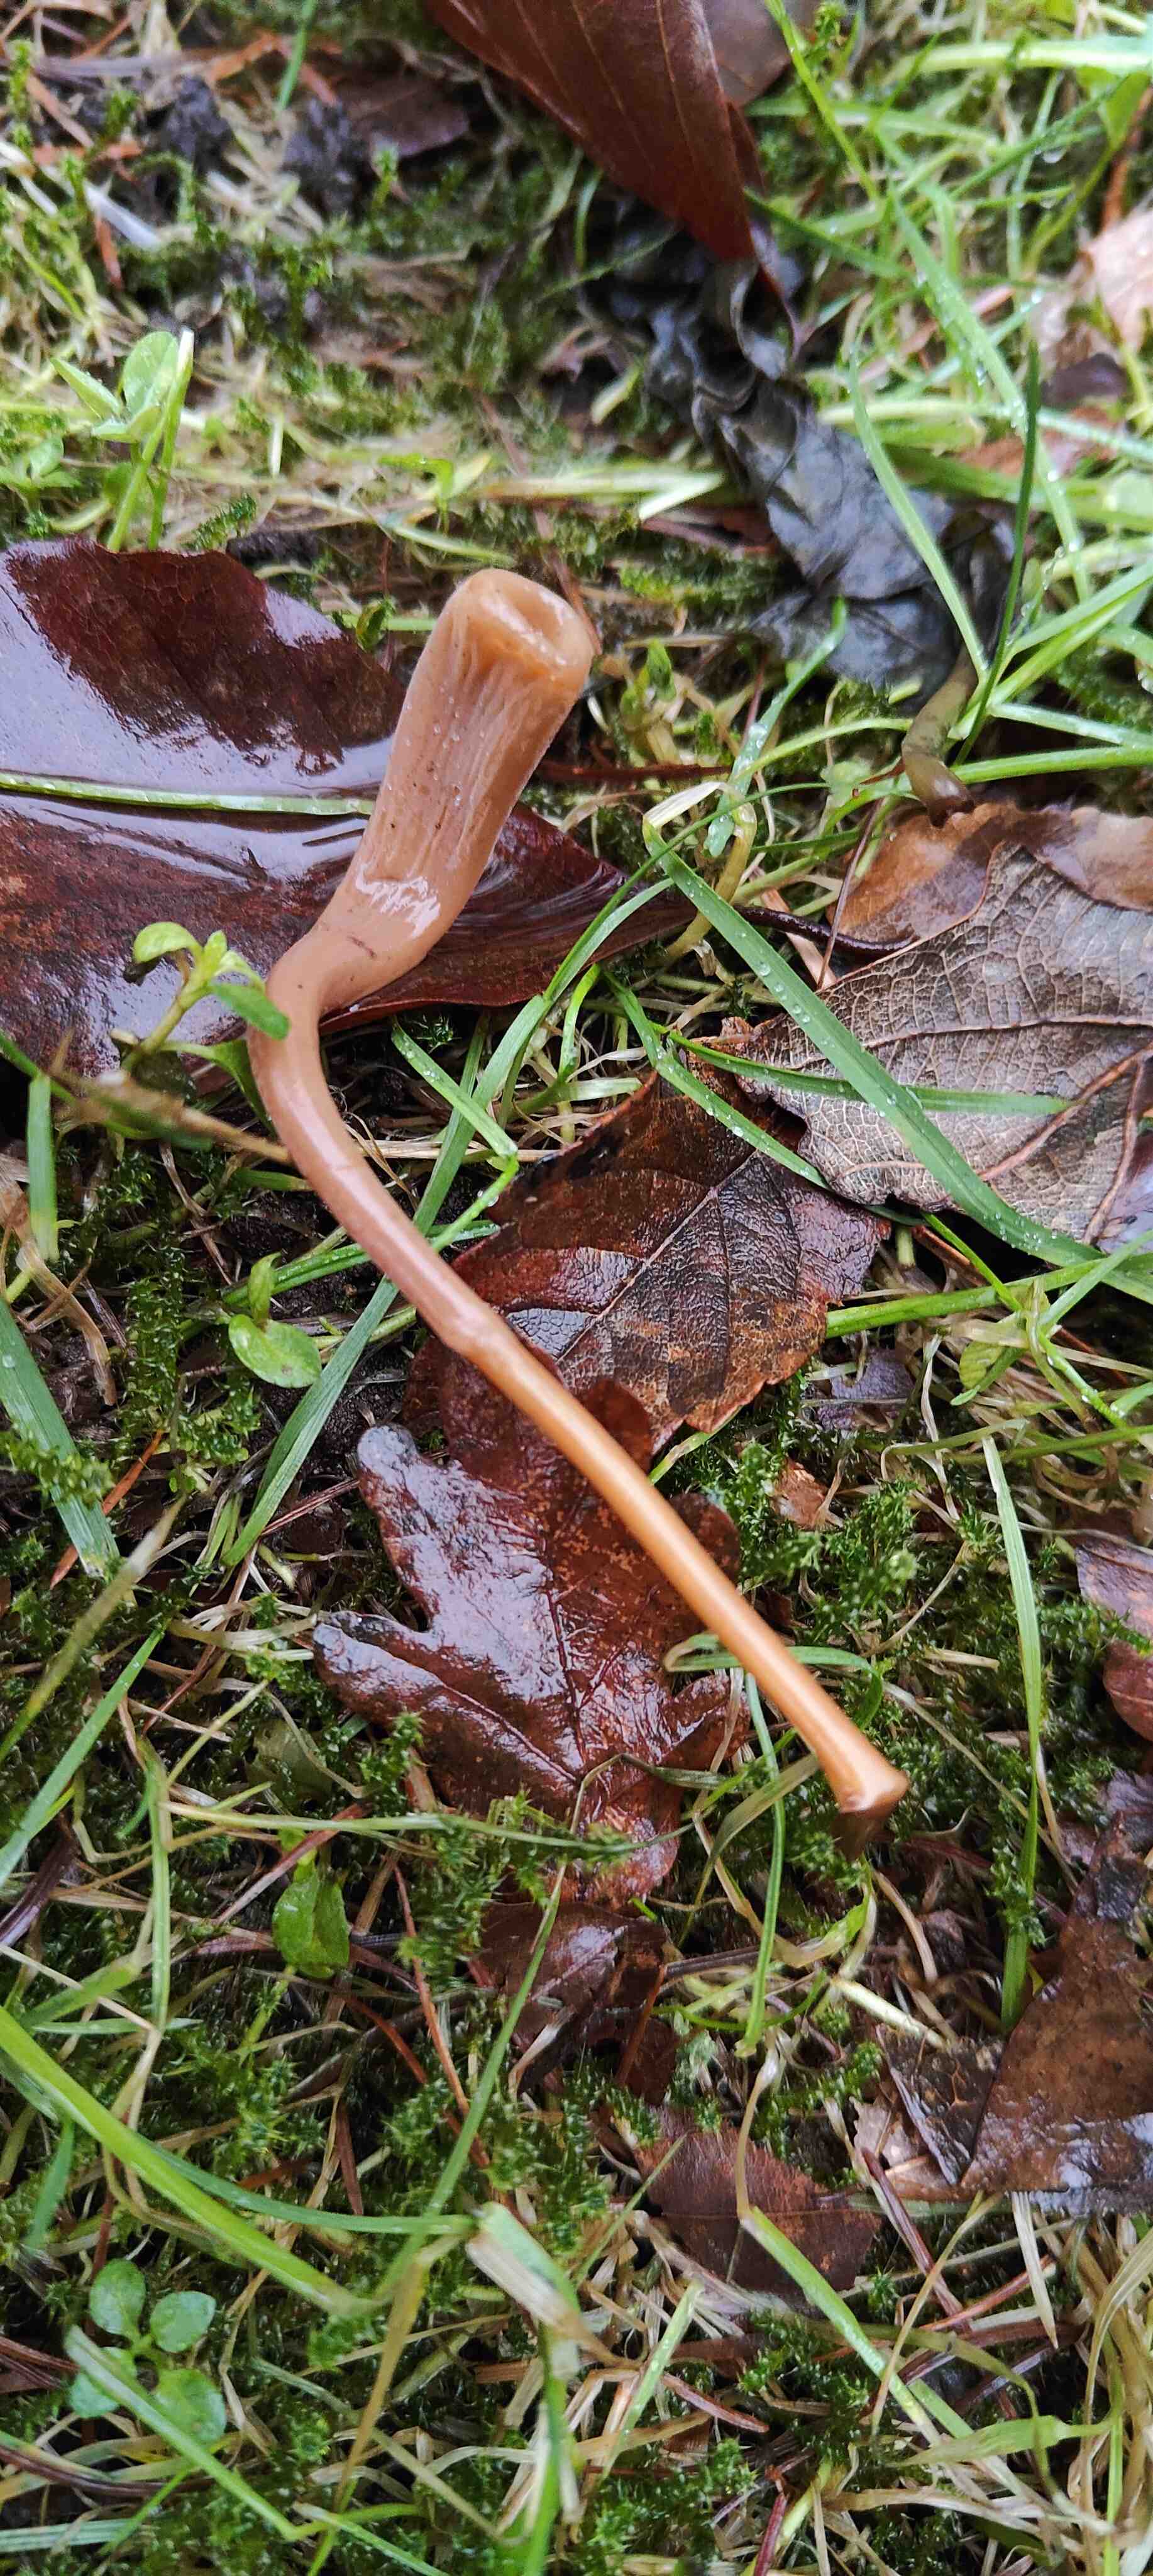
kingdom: Fungi
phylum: Basidiomycota
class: Agaricomycetes
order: Agaricales
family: Typhulaceae
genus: Typhula
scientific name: Typhula fistulosa
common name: pibet rørkølle
